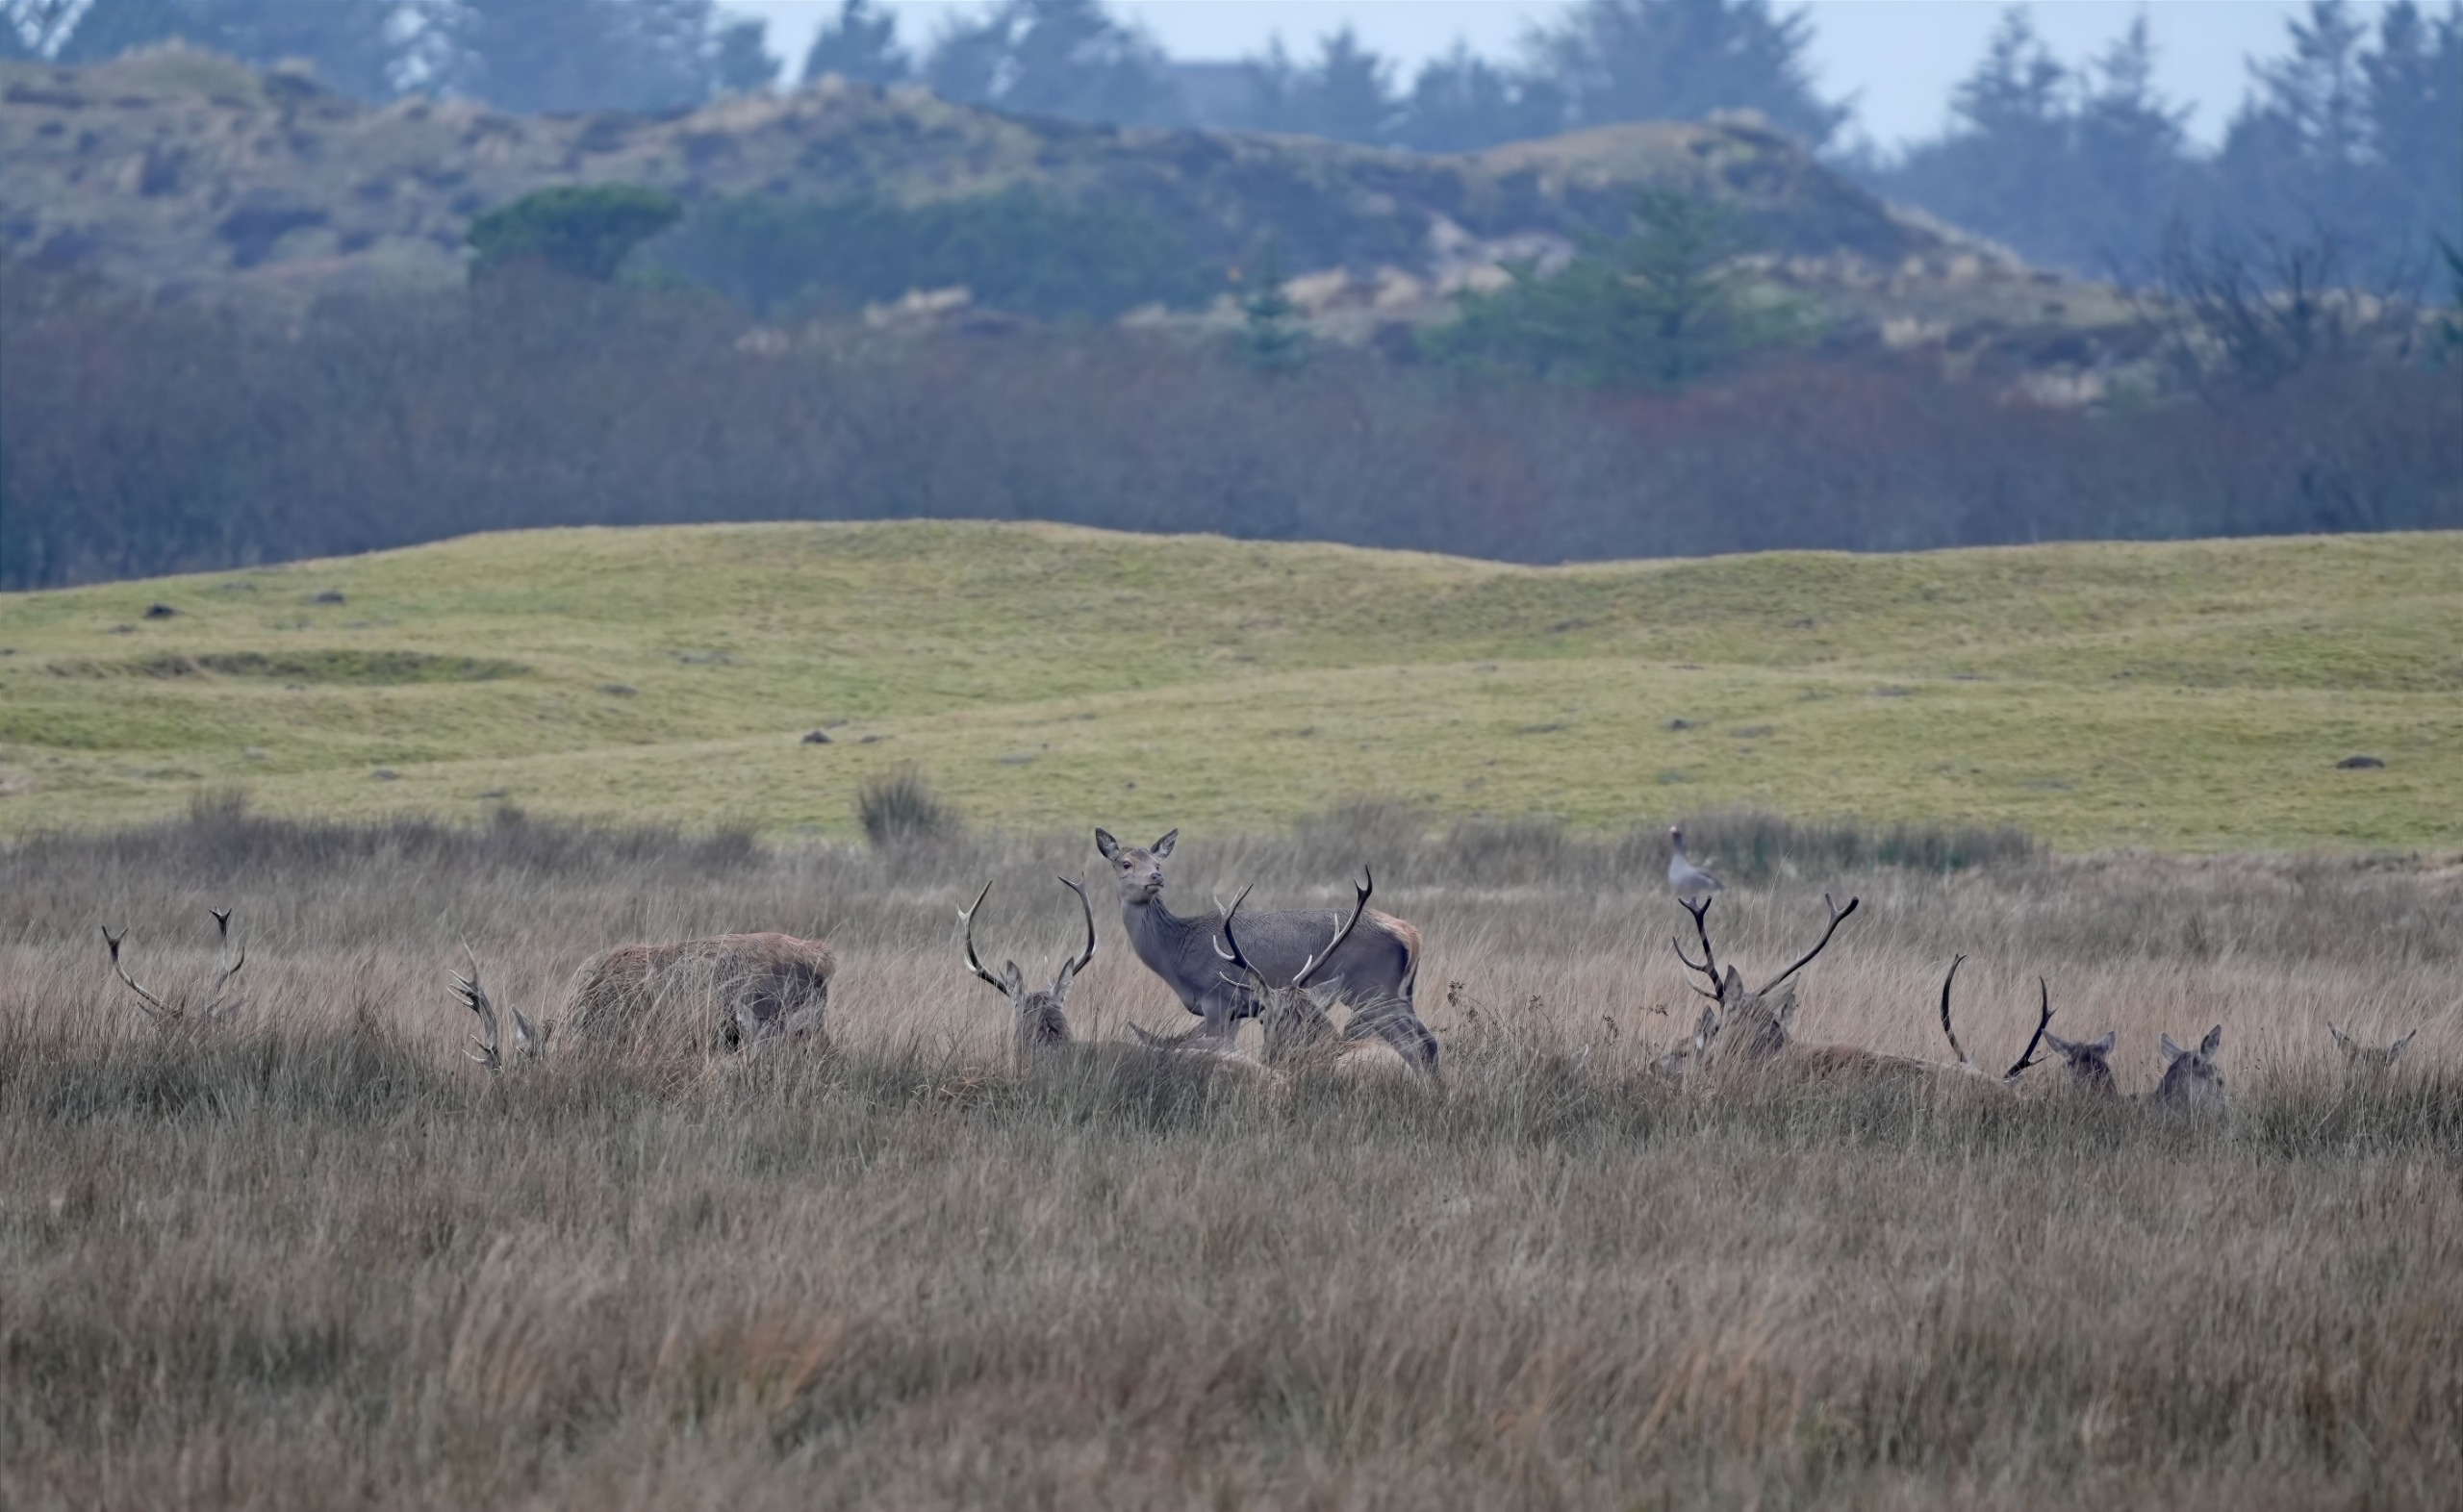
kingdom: Animalia
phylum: Chordata
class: Mammalia
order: Artiodactyla
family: Cervidae
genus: Cervus
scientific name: Cervus elaphus
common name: Krondyr
